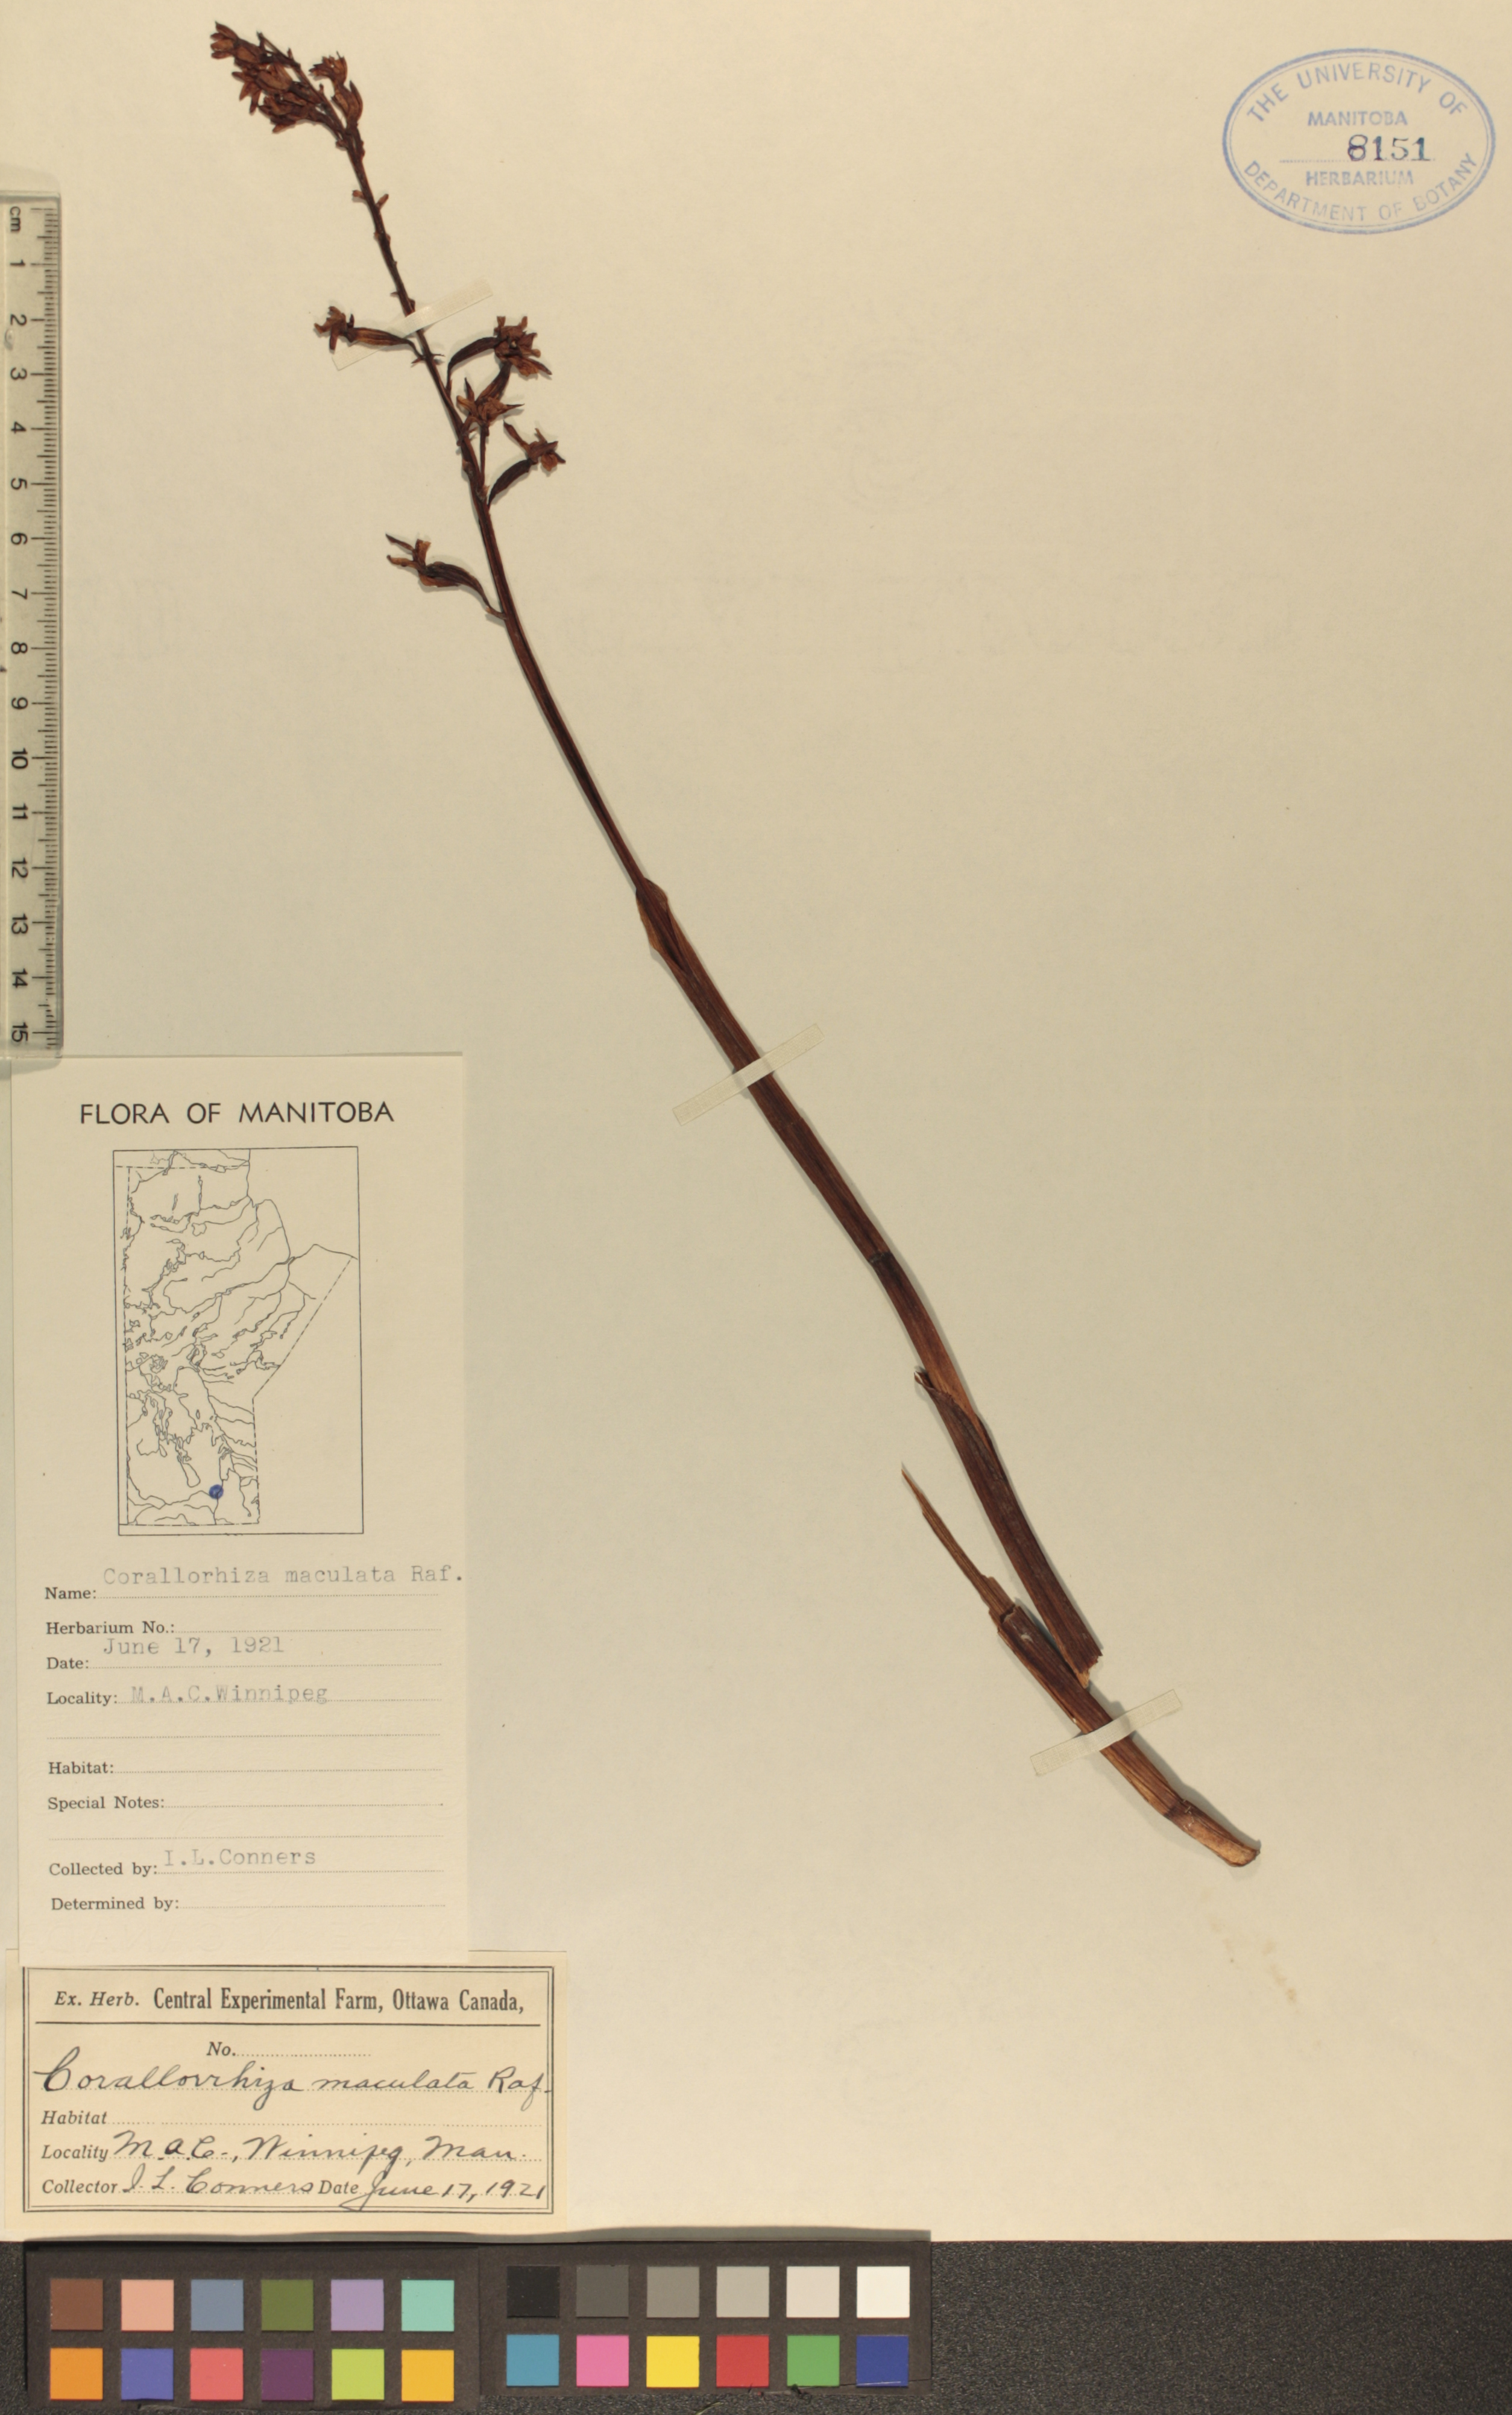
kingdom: Plantae
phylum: Tracheophyta
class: Liliopsida
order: Asparagales
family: Orchidaceae
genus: Corallorhiza
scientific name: Corallorhiza maculata
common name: Spotted coralroot
